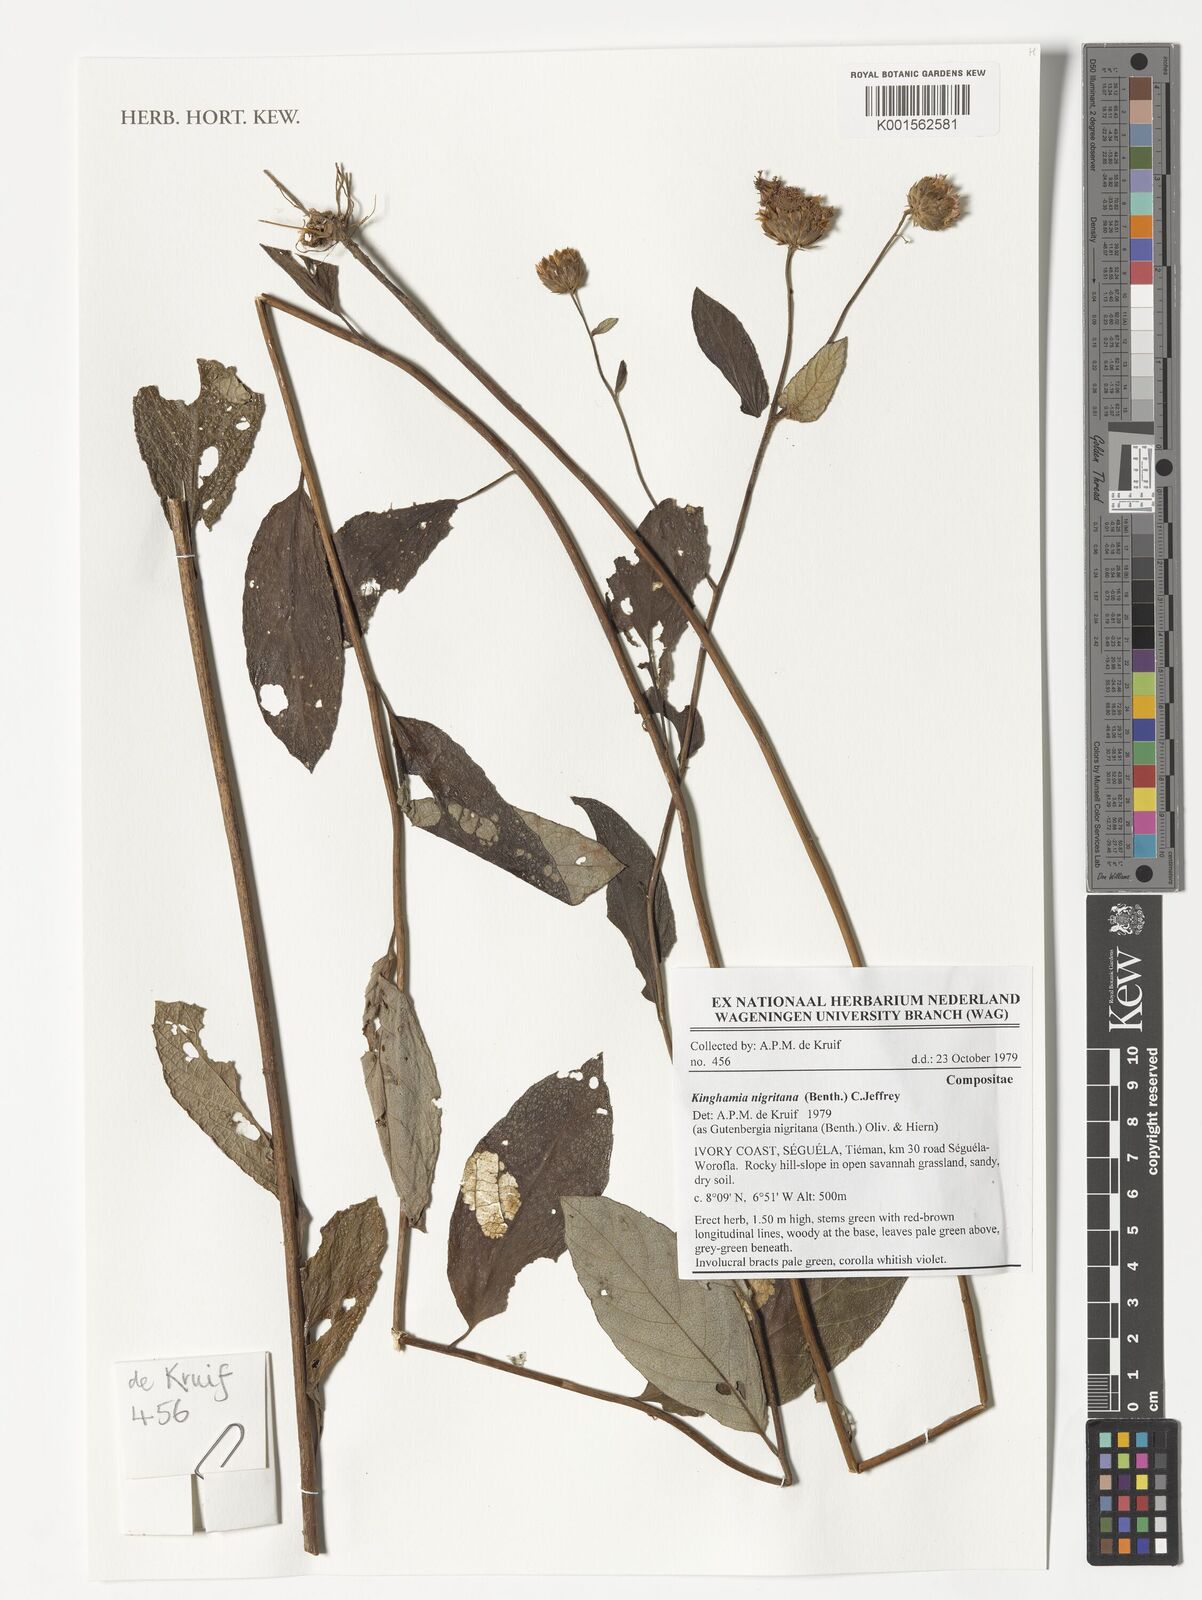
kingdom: Plantae
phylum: Tracheophyta
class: Magnoliopsida
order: Asterales
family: Asteraceae
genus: Kinghamia
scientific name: Kinghamia nigritana
